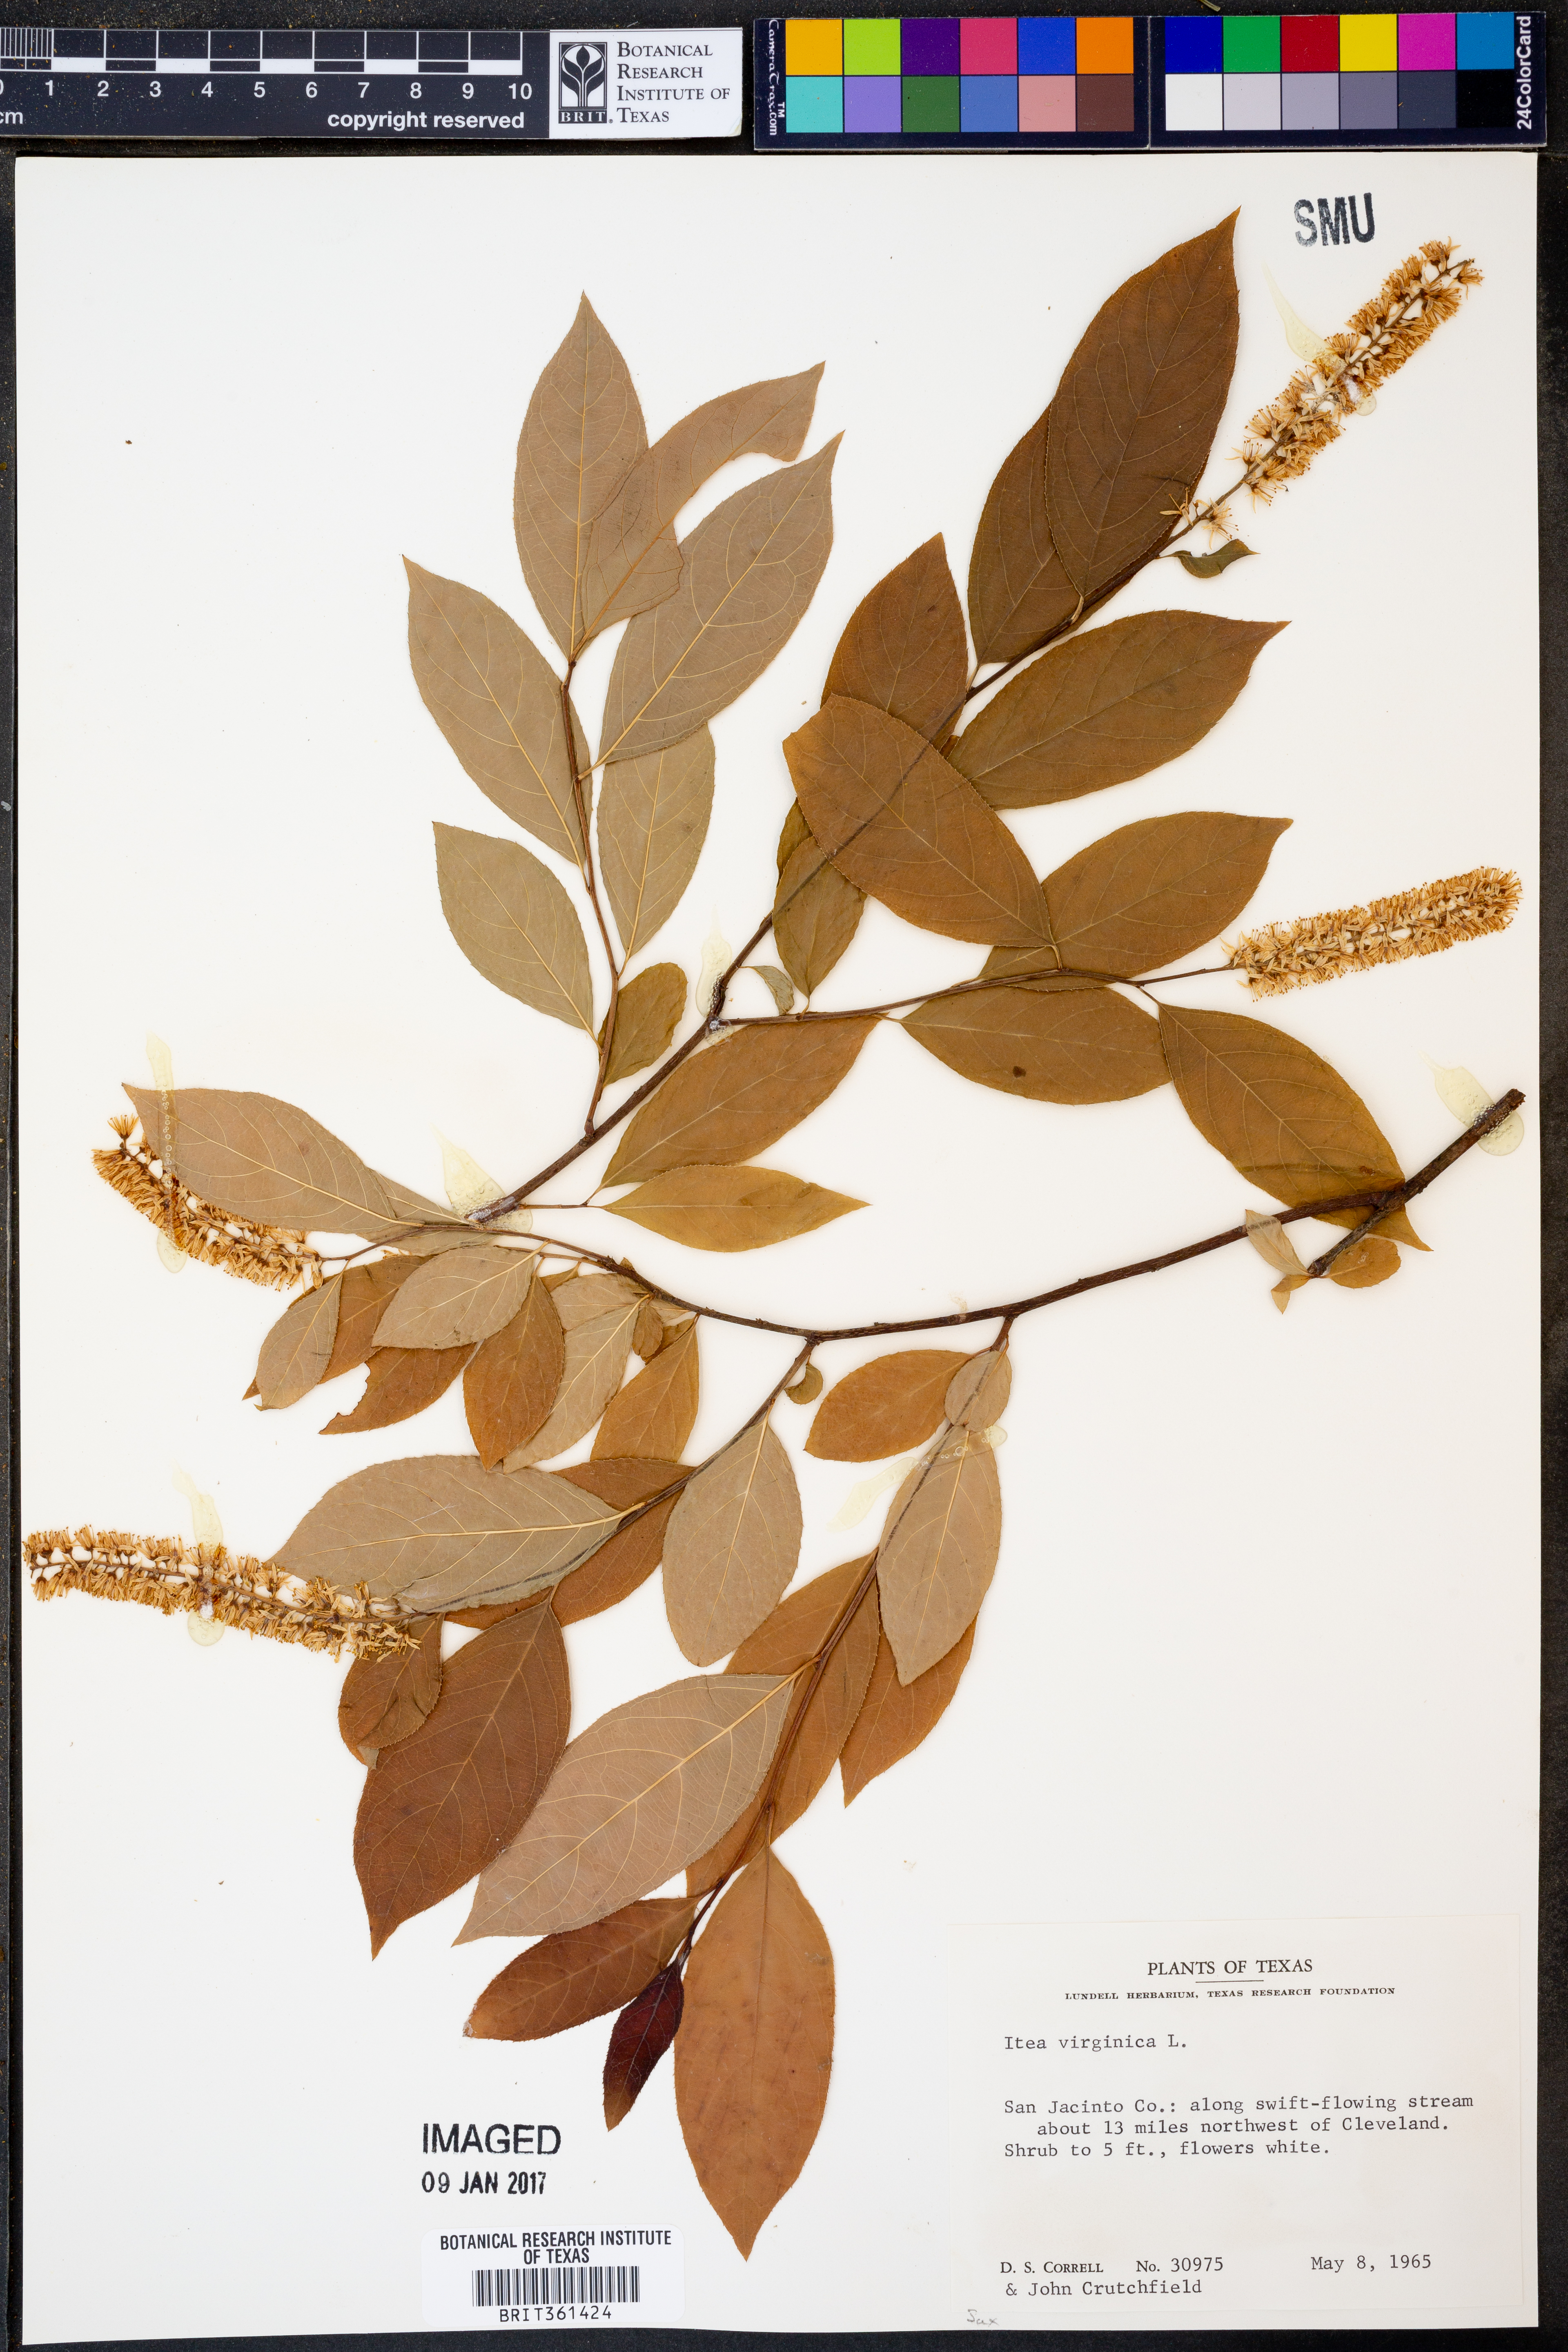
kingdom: Plantae
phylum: Tracheophyta
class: Magnoliopsida
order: Saxifragales
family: Iteaceae
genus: Itea
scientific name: Itea virginica
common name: Sweetspire
